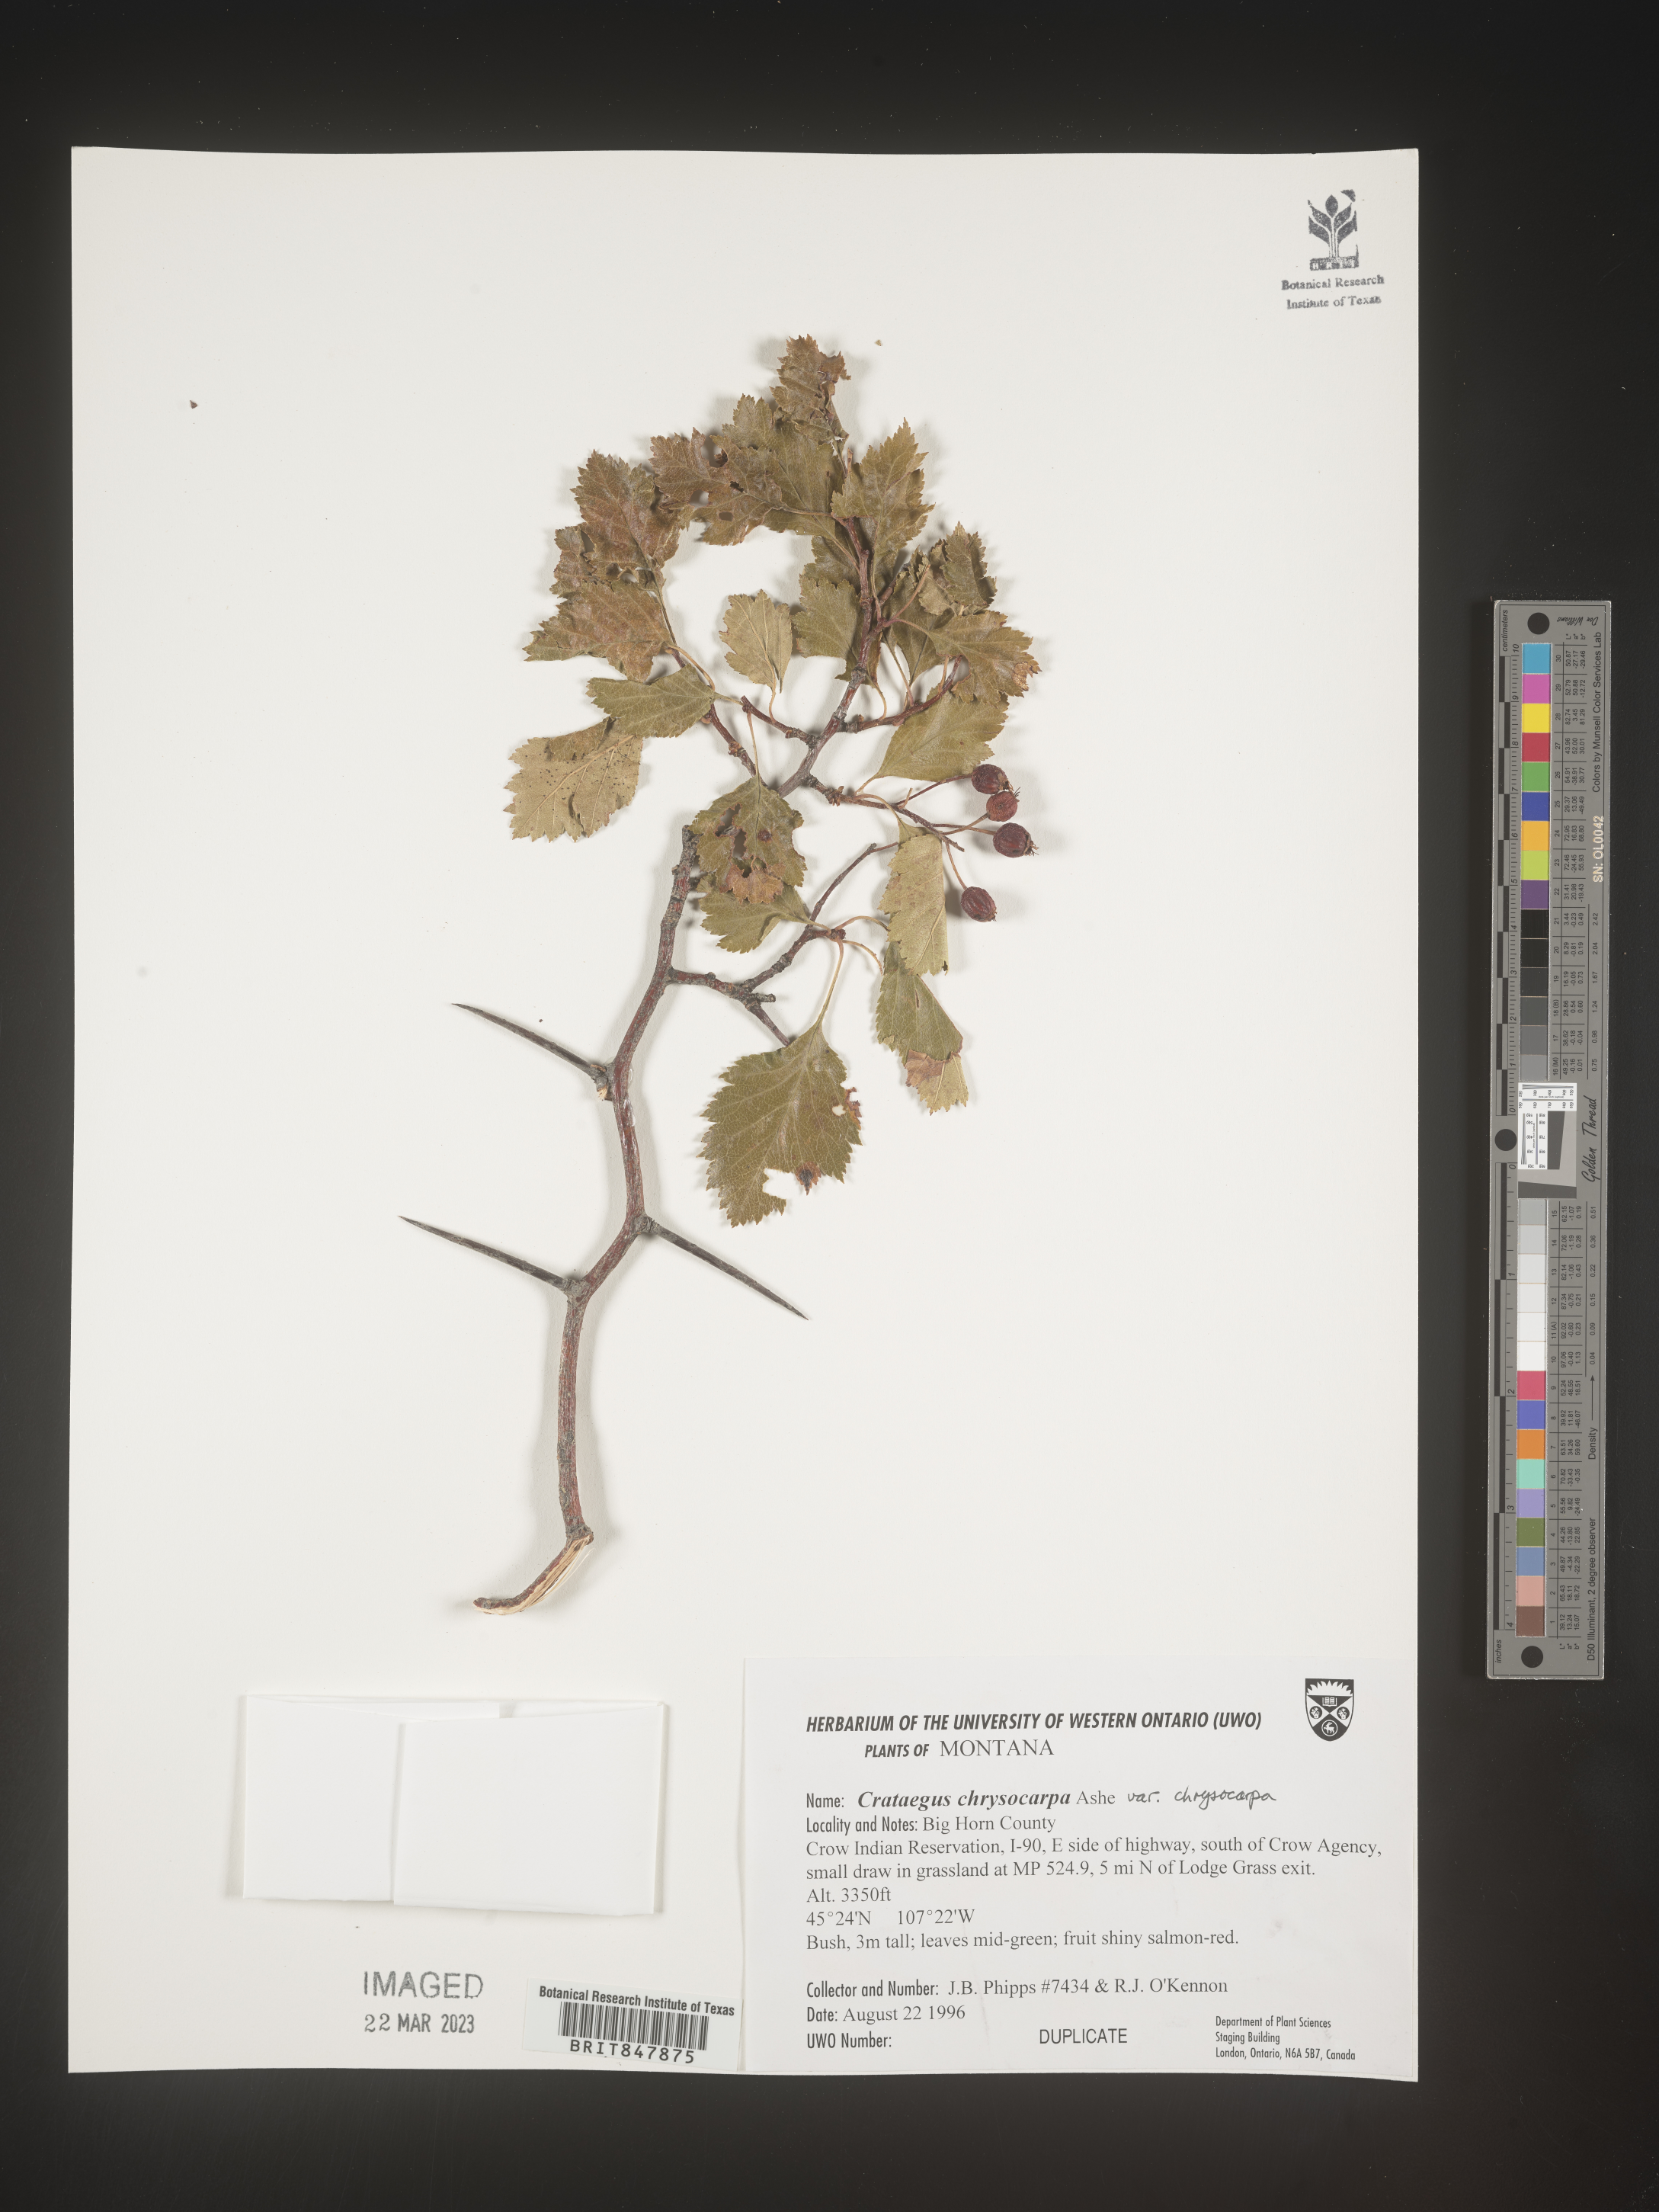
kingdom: Plantae
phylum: Tracheophyta
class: Magnoliopsida
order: Rosales
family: Rosaceae
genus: Crataegus
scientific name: Crataegus chrysocarpa
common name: Fire-berry hawthorn
